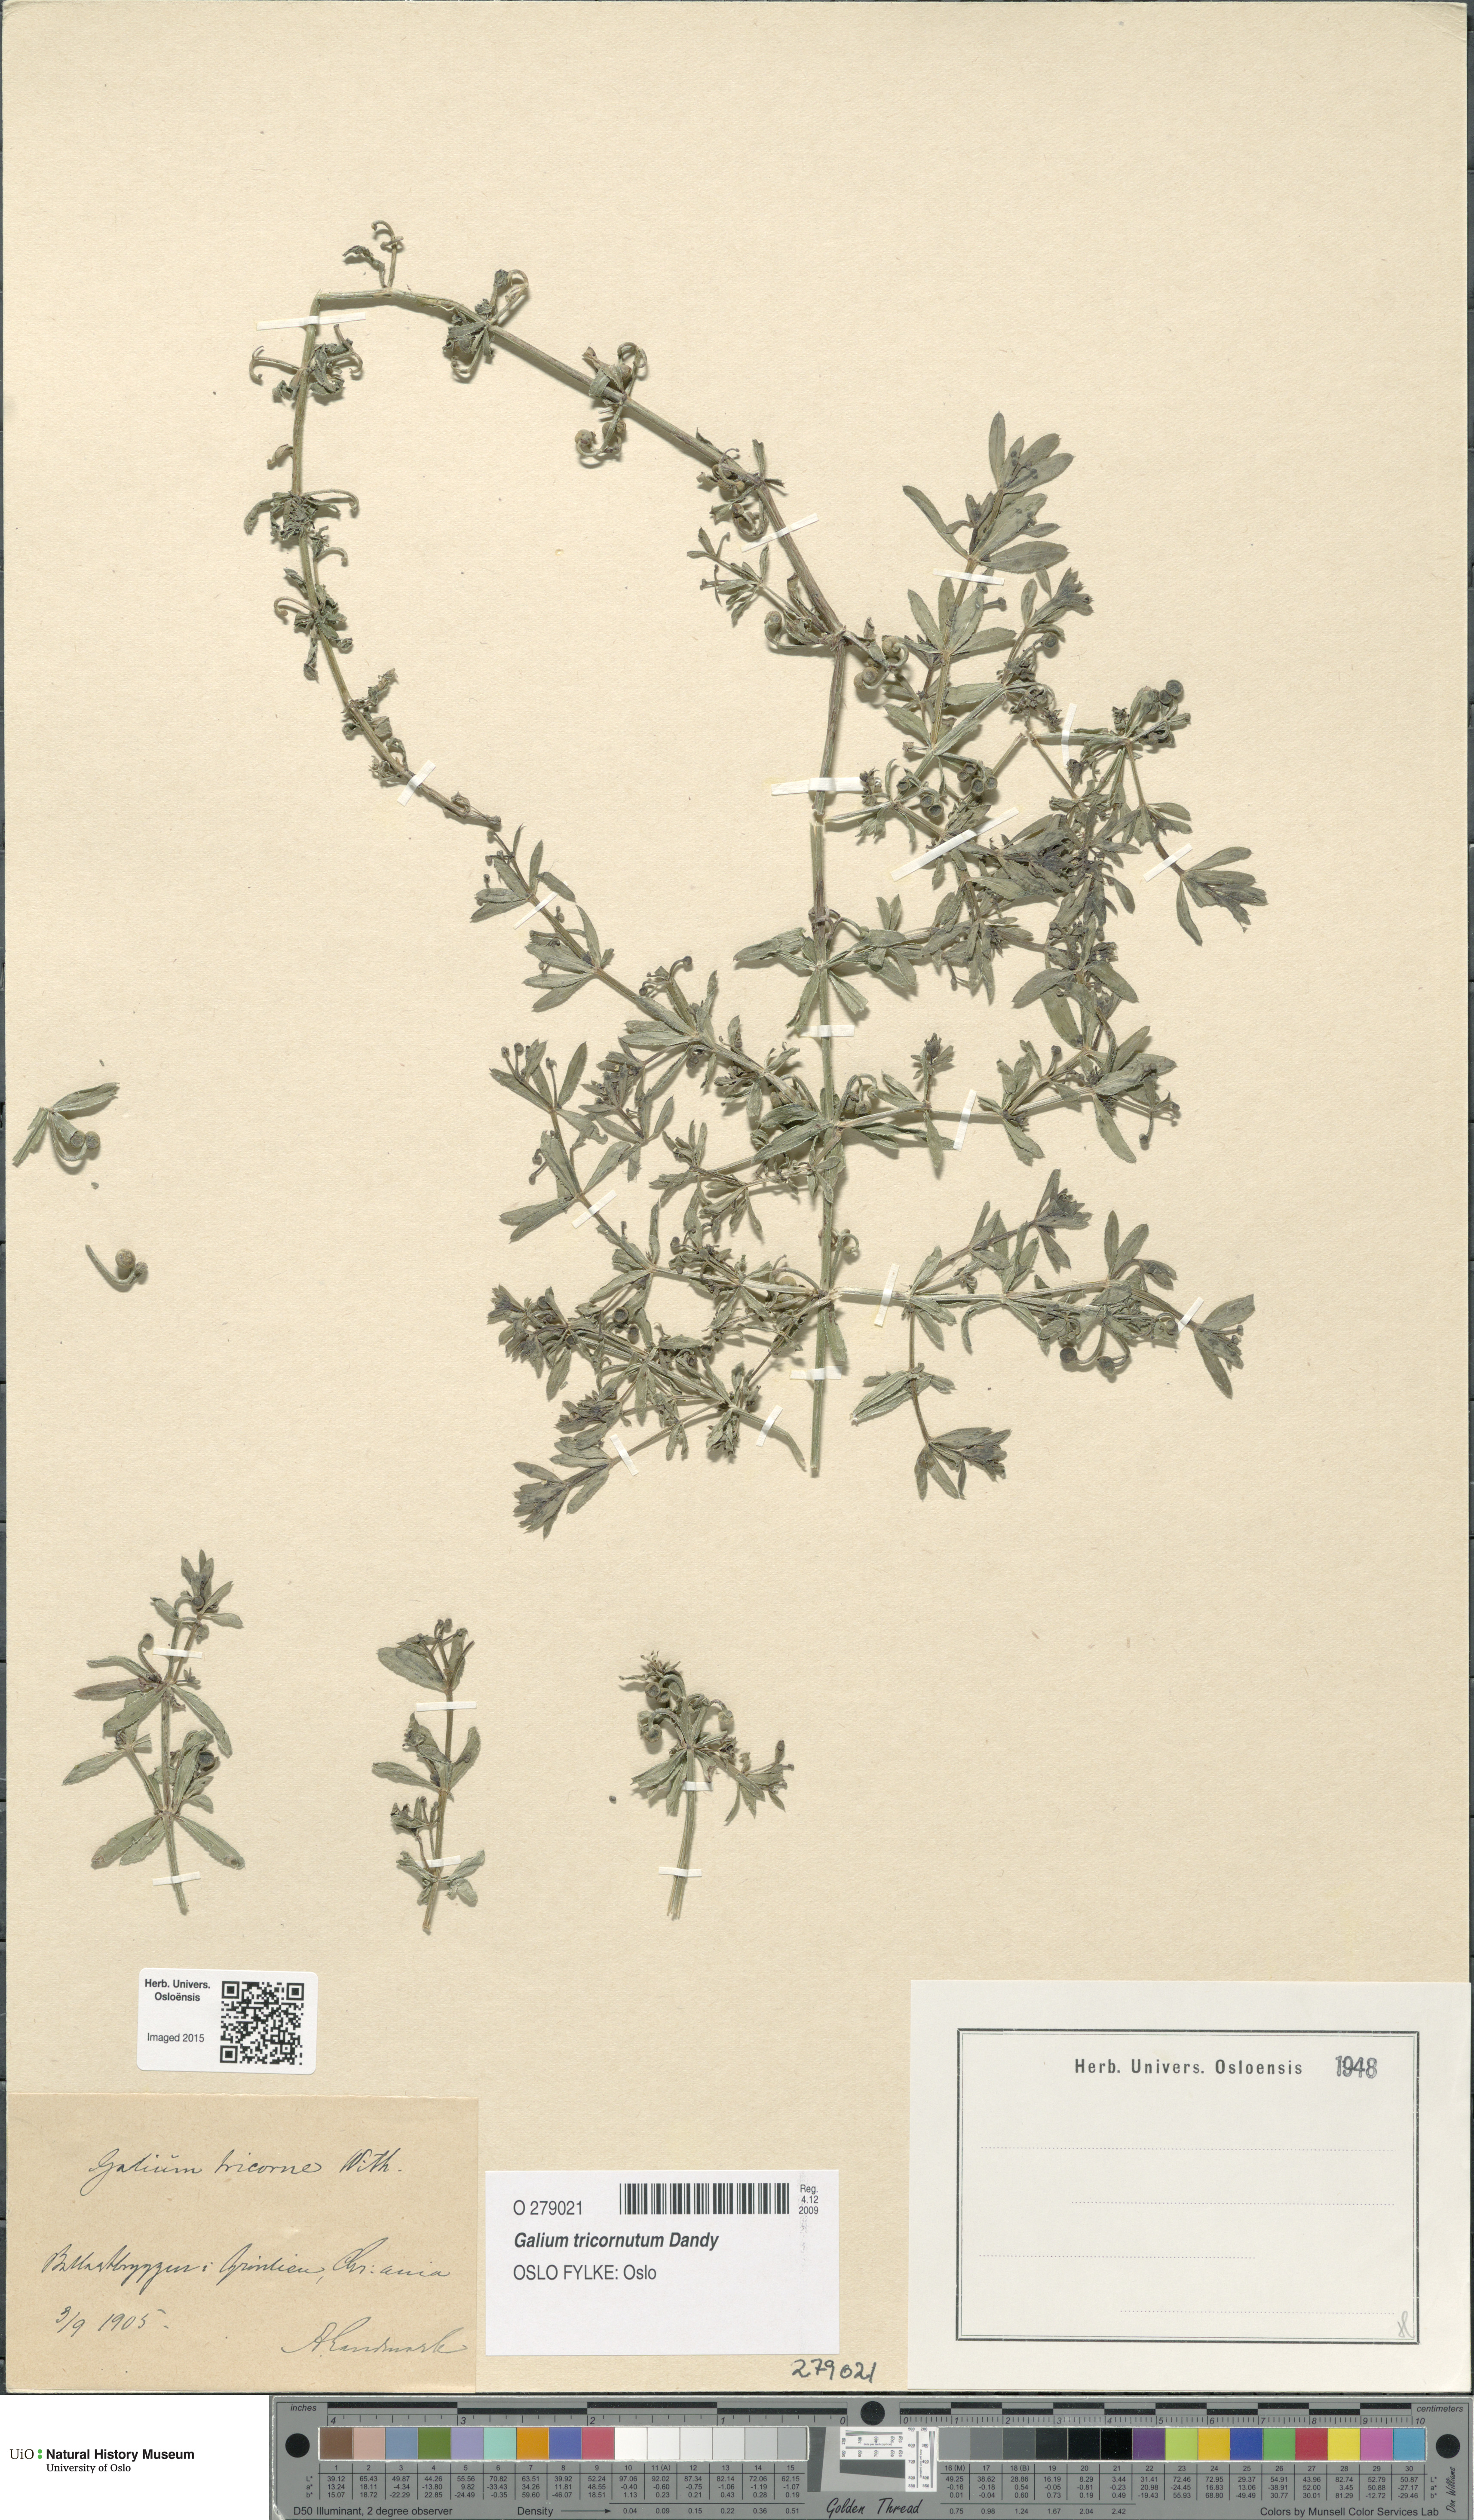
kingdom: Plantae
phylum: Tracheophyta
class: Magnoliopsida
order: Gentianales
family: Rubiaceae
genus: Galium
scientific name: Galium tricornutum
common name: Corn cleavers
